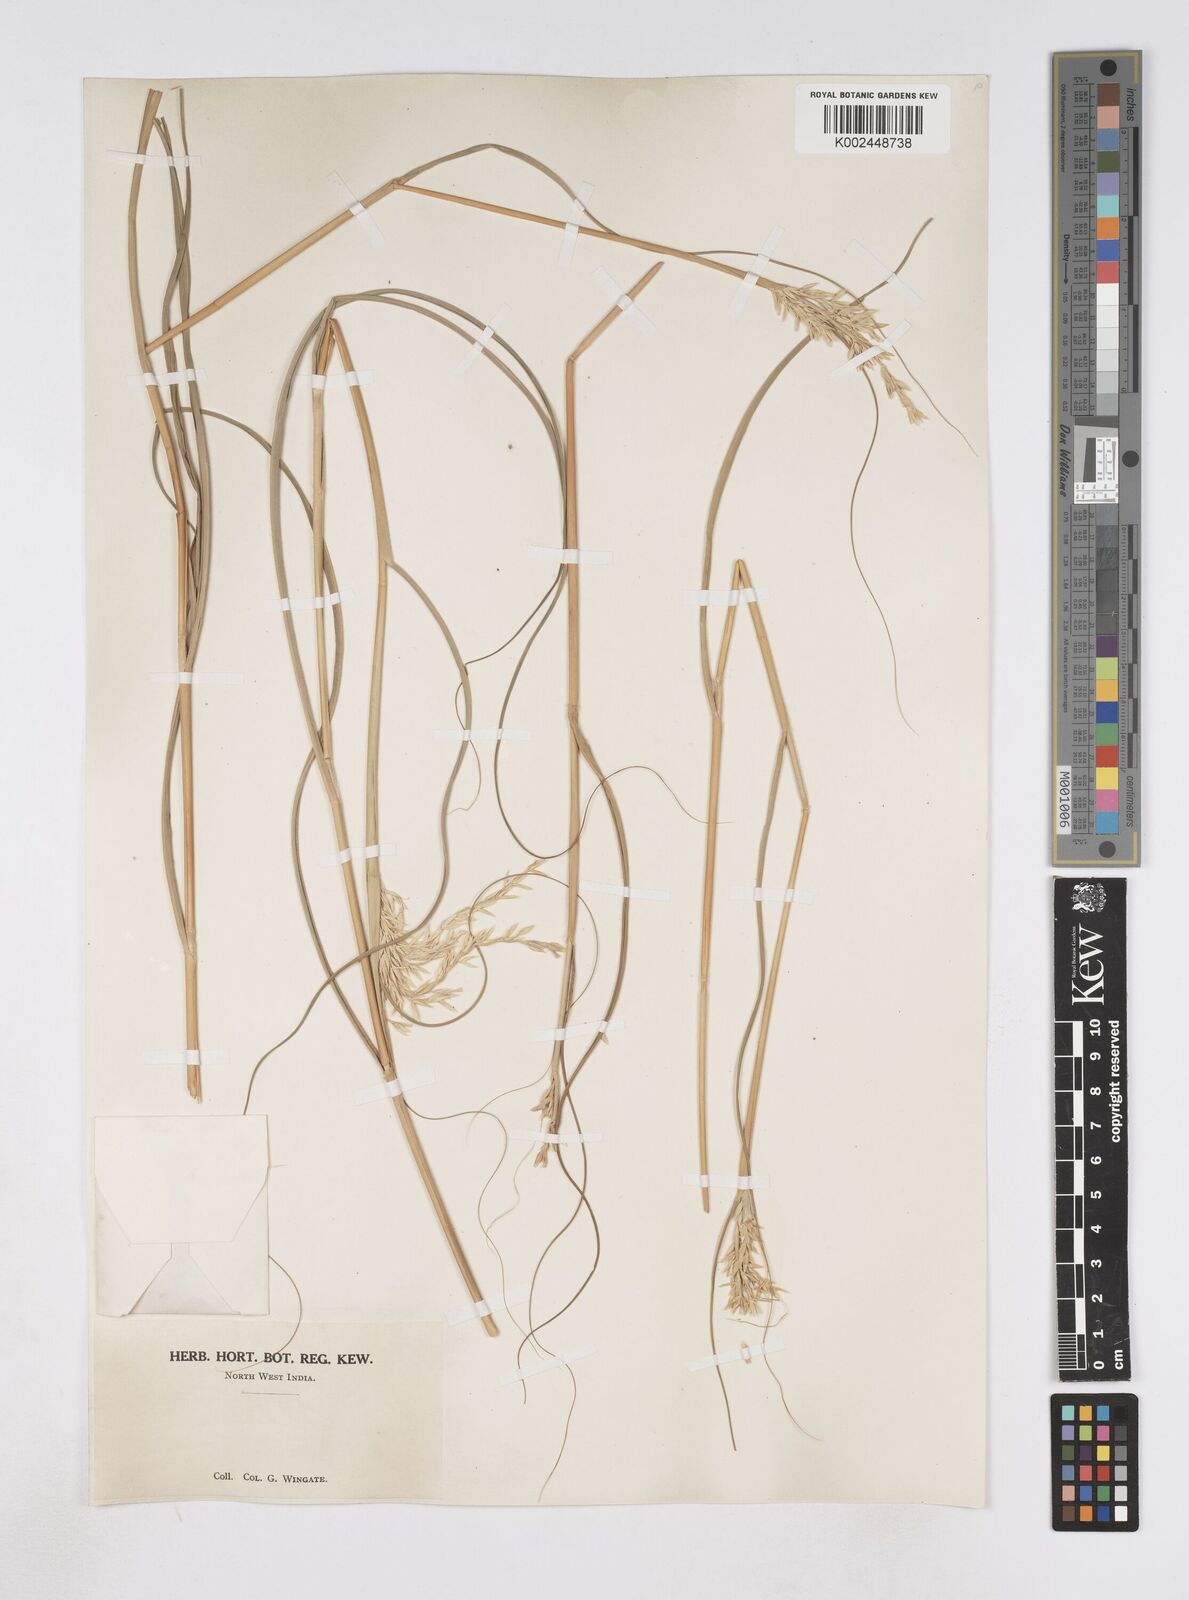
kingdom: Plantae
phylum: Tracheophyta
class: Liliopsida
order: Poales
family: Poaceae
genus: Phacelurus
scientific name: Phacelurus speciosus
